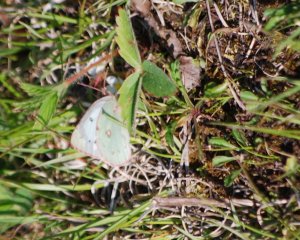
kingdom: Animalia
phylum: Arthropoda
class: Insecta
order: Lepidoptera
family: Pieridae
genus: Colias
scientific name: Colias philodice
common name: Clouded Sulphur
